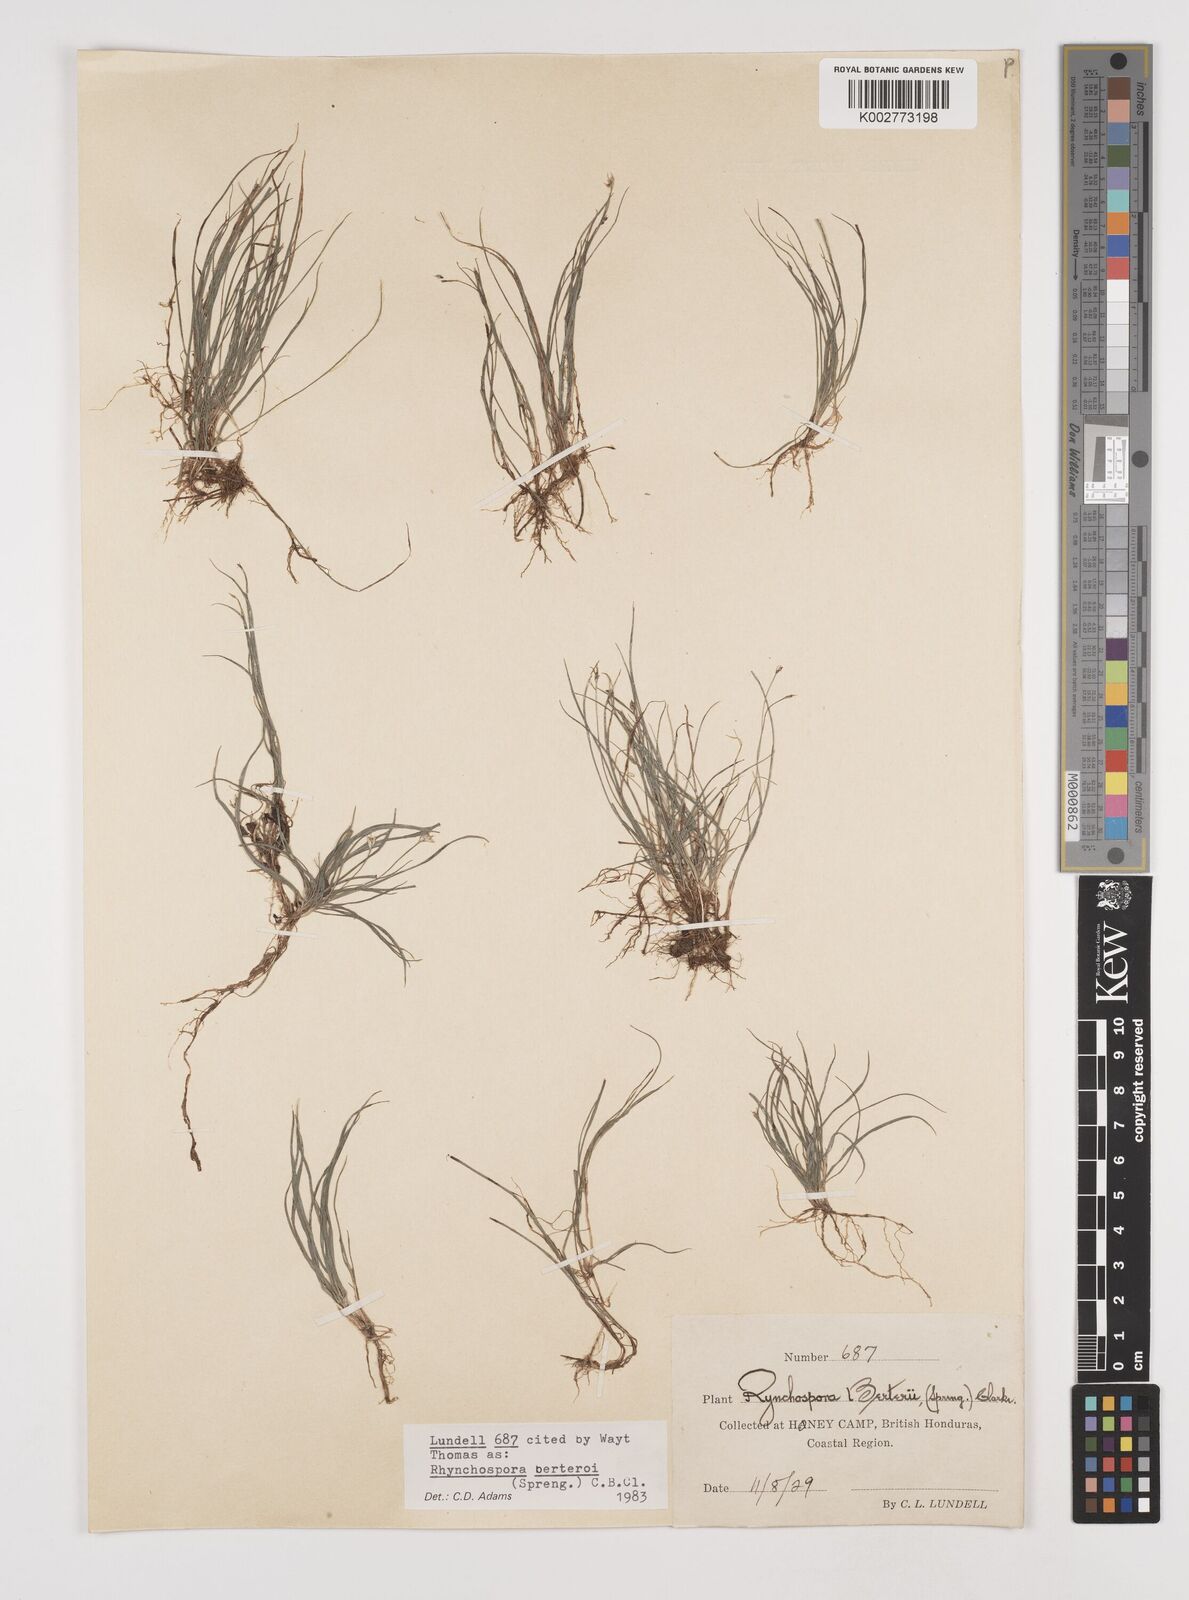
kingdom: Plantae
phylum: Tracheophyta
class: Liliopsida
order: Poales
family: Cyperaceae
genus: Rhynchospora
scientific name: Rhynchospora berteroi
